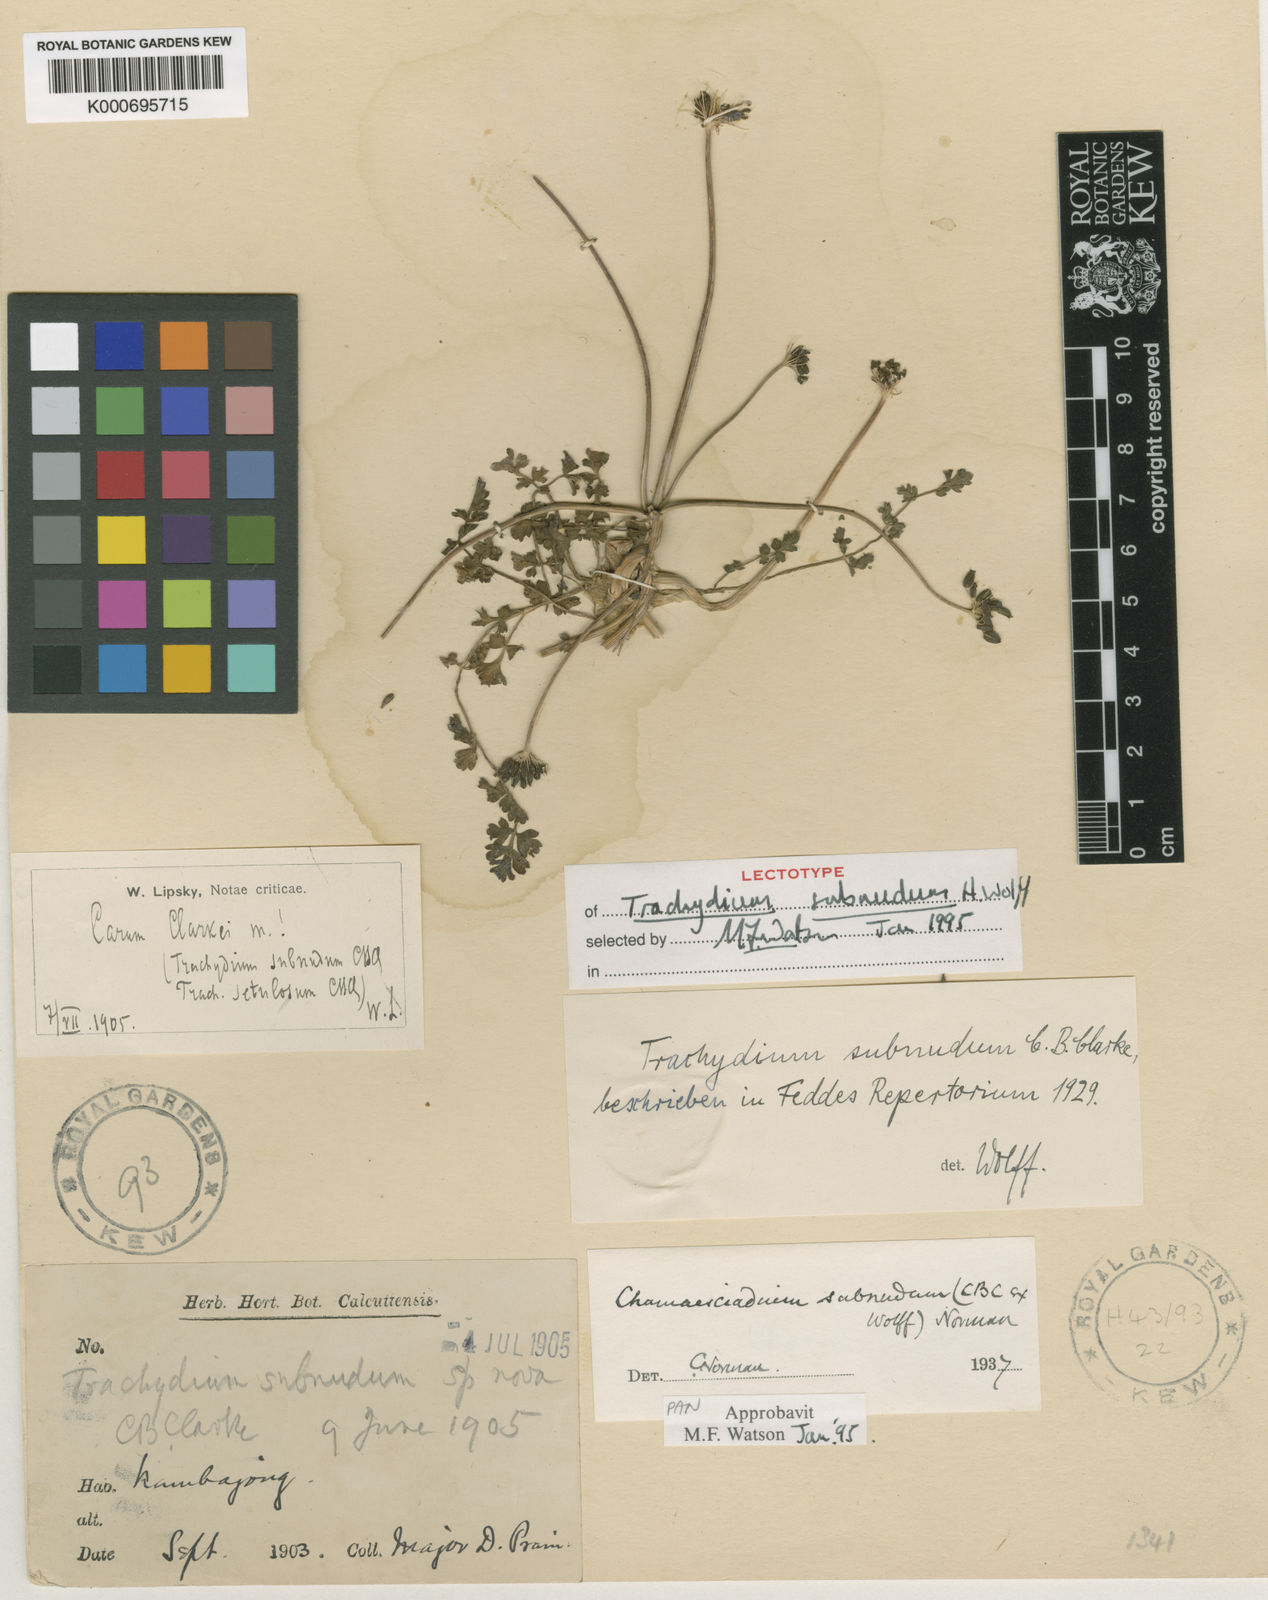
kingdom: Plantae
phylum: Tracheophyta
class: Magnoliopsida
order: Apiales
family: Apiaceae
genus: Trachydium
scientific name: Trachydium subnudum
